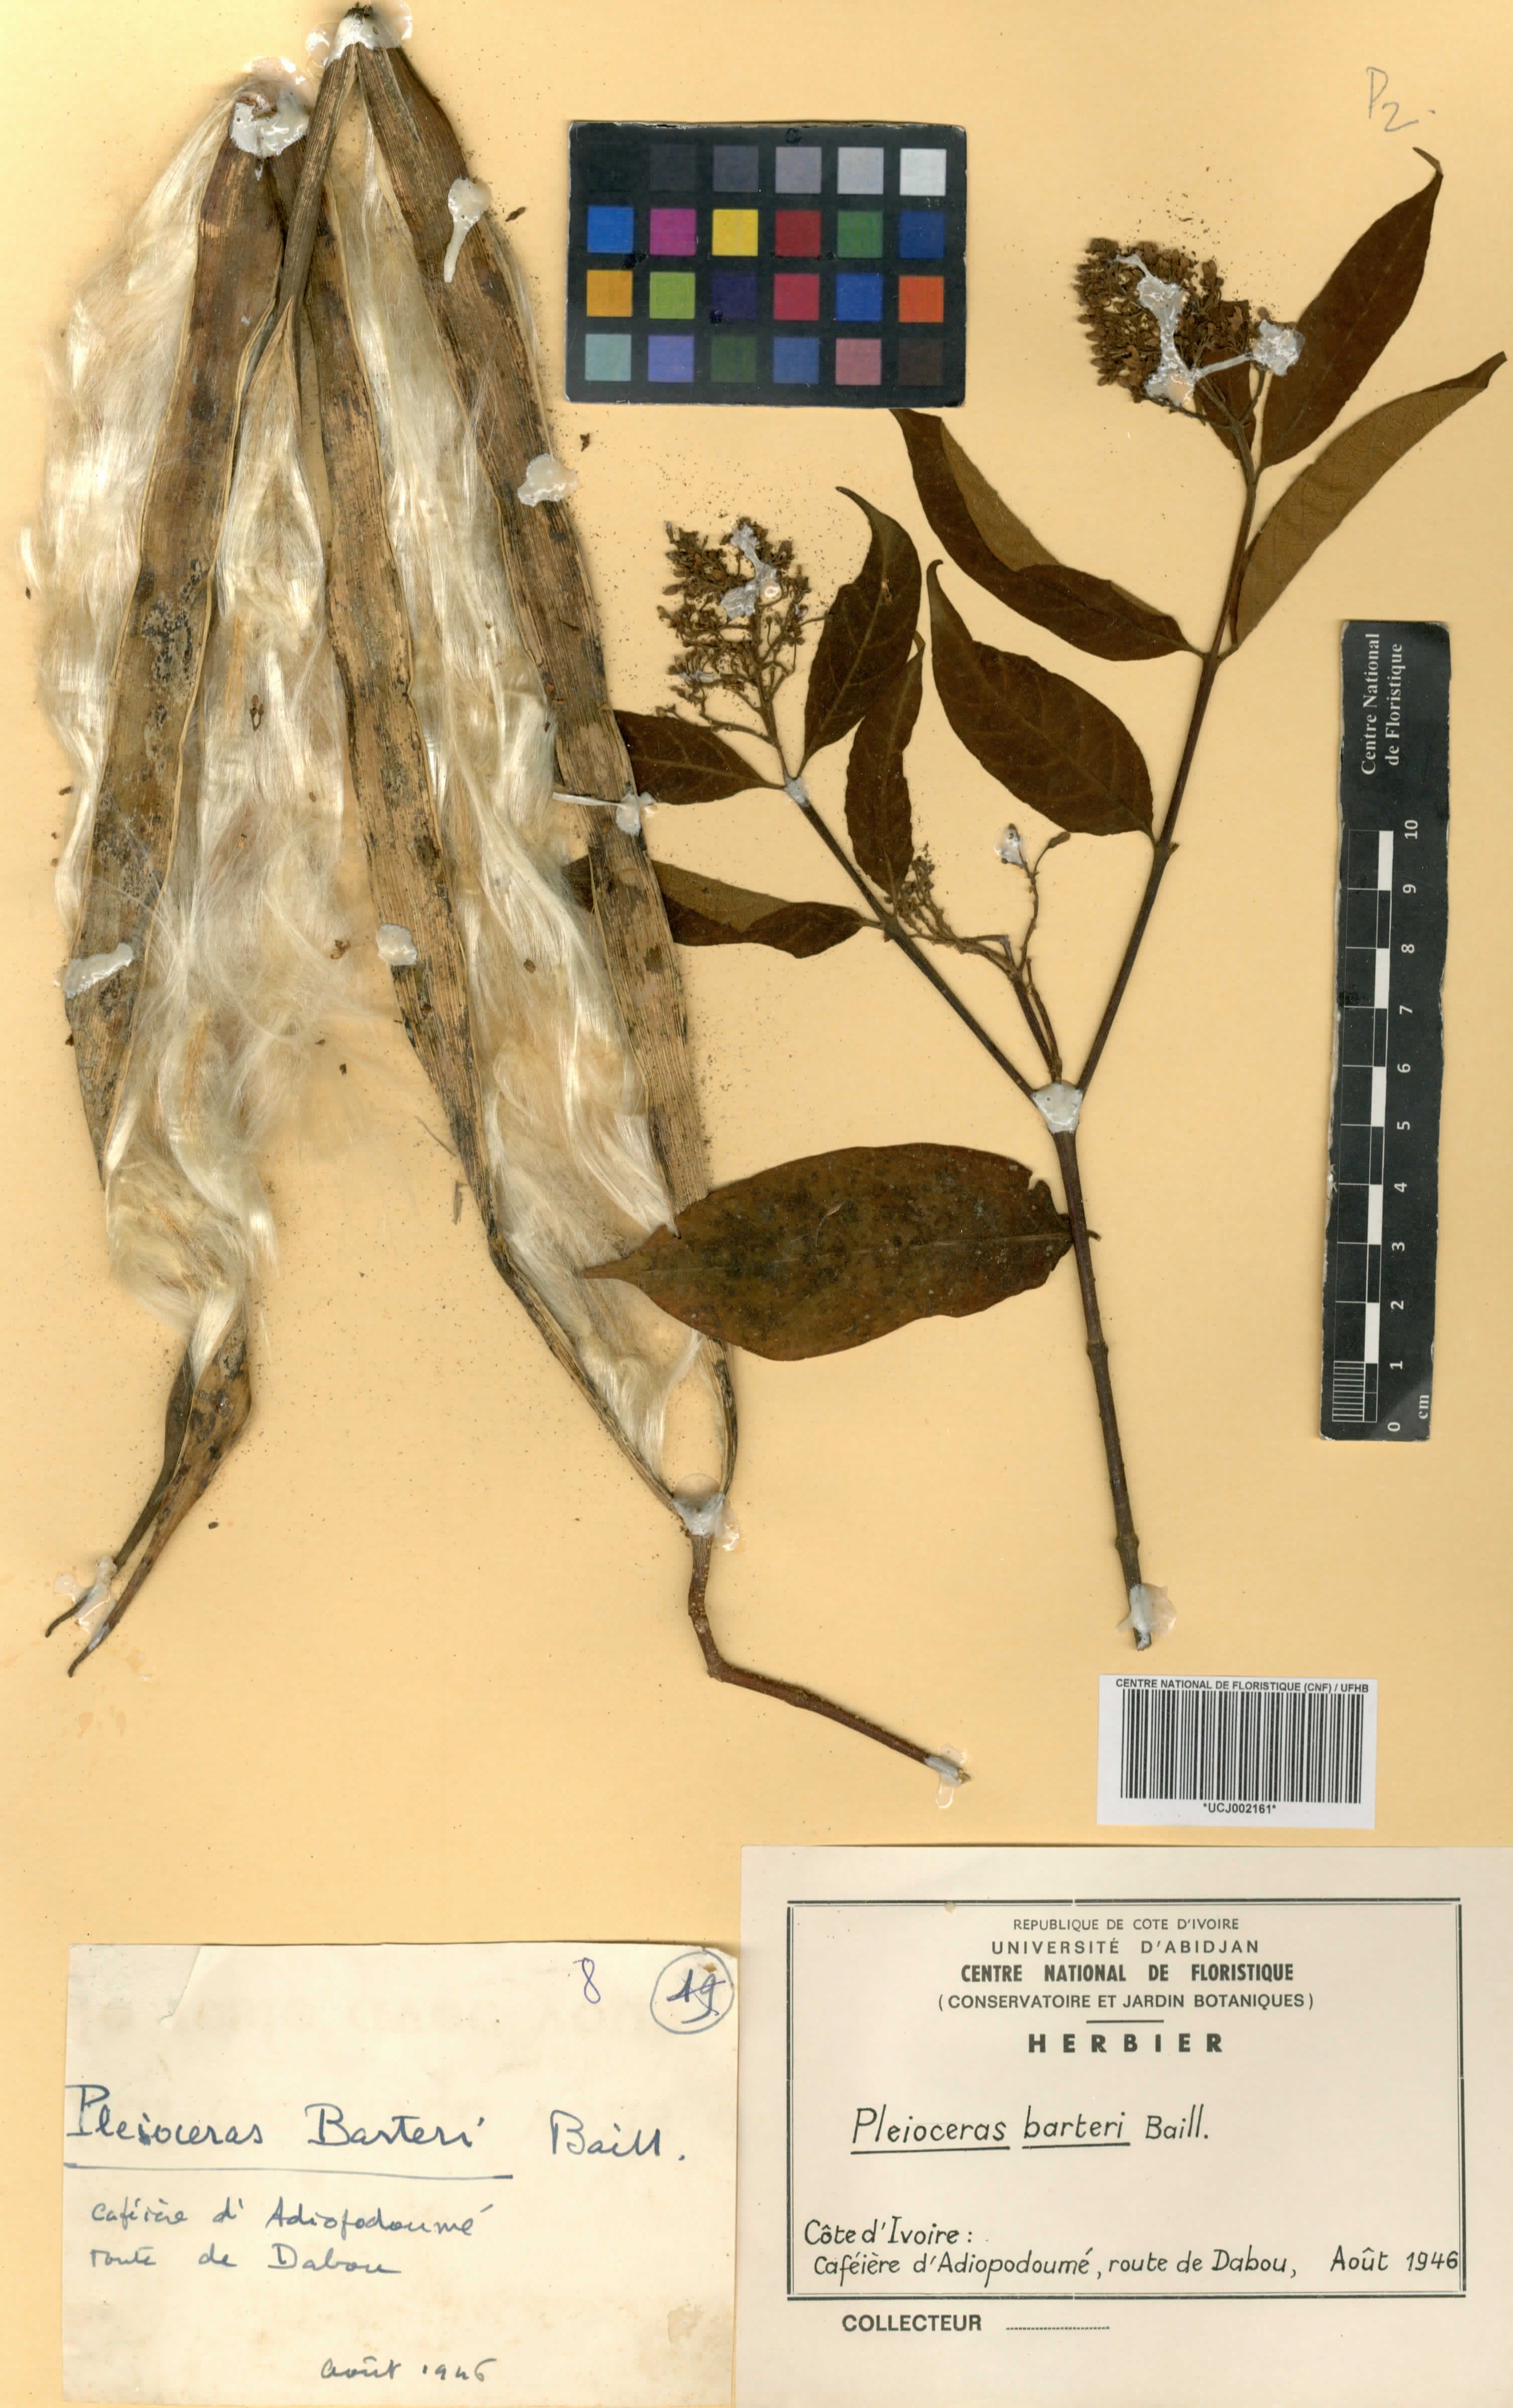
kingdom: Plantae
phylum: Tracheophyta
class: Magnoliopsida
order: Gentianales
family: Apocynaceae
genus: Pleioceras
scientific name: Pleioceras barteri
